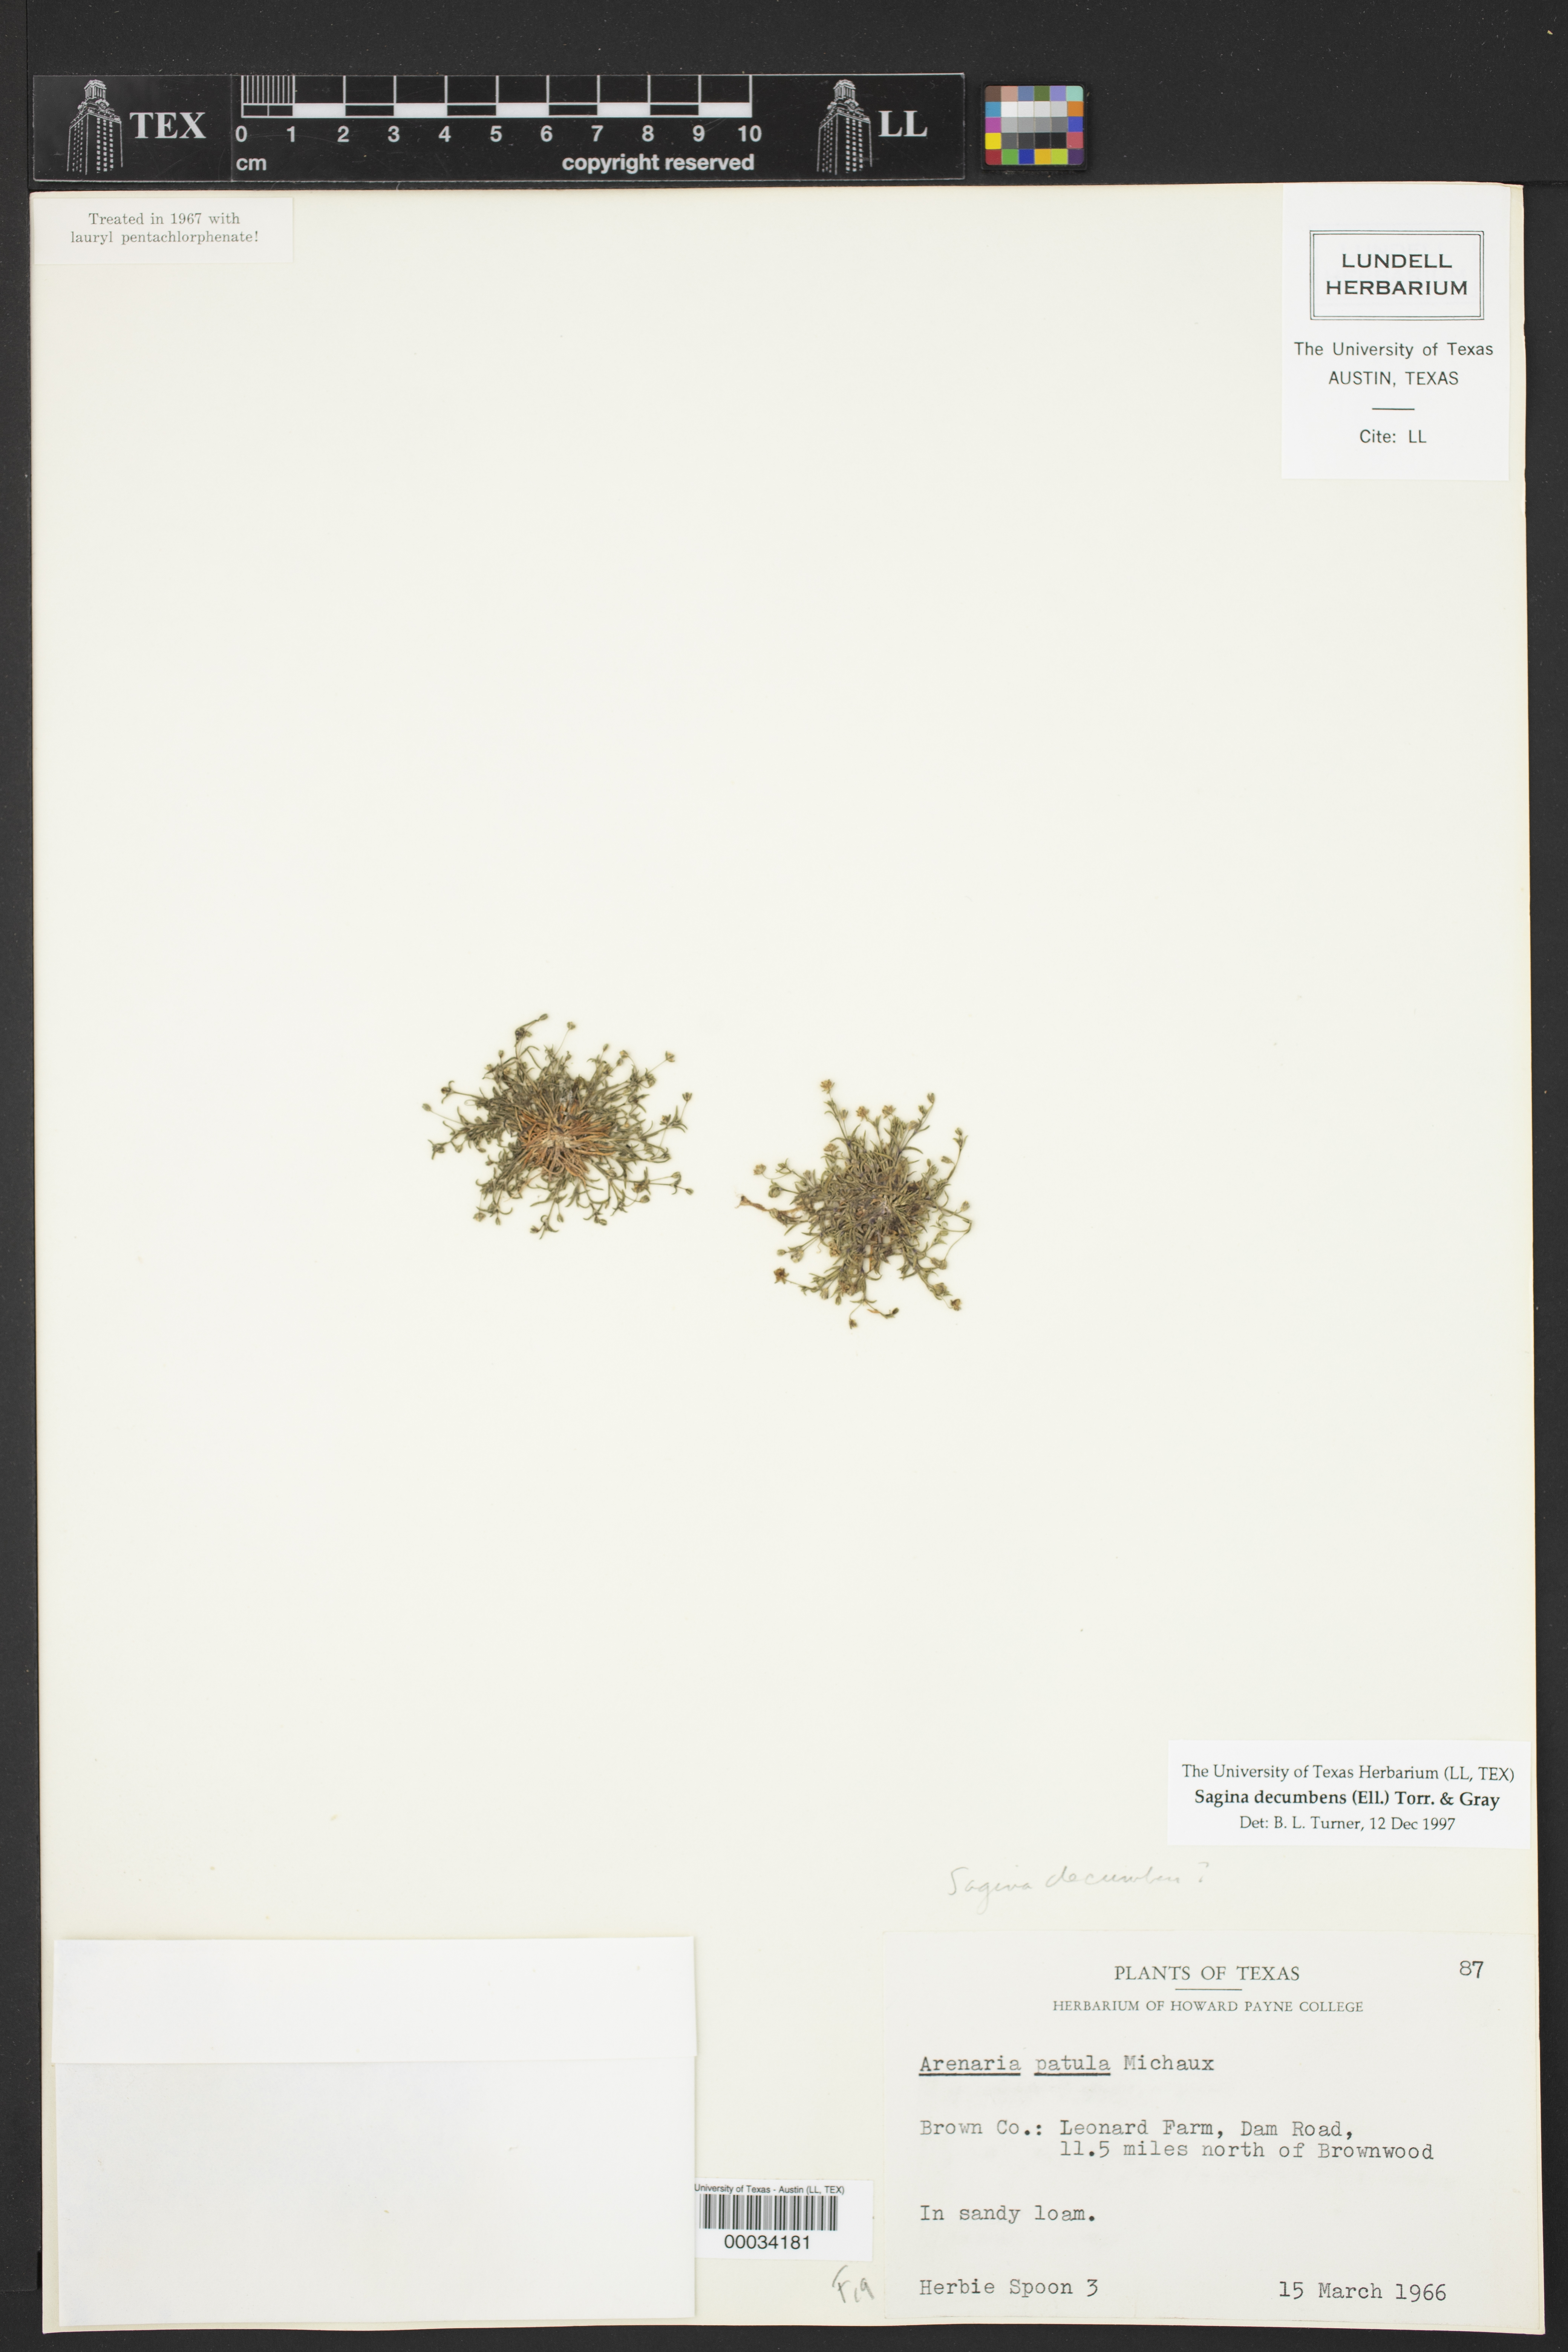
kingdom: Plantae
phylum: Tracheophyta
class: Magnoliopsida
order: Caryophyllales
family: Caryophyllaceae
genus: Sagina
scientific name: Sagina decumbens
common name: Decumbent pearlwort
